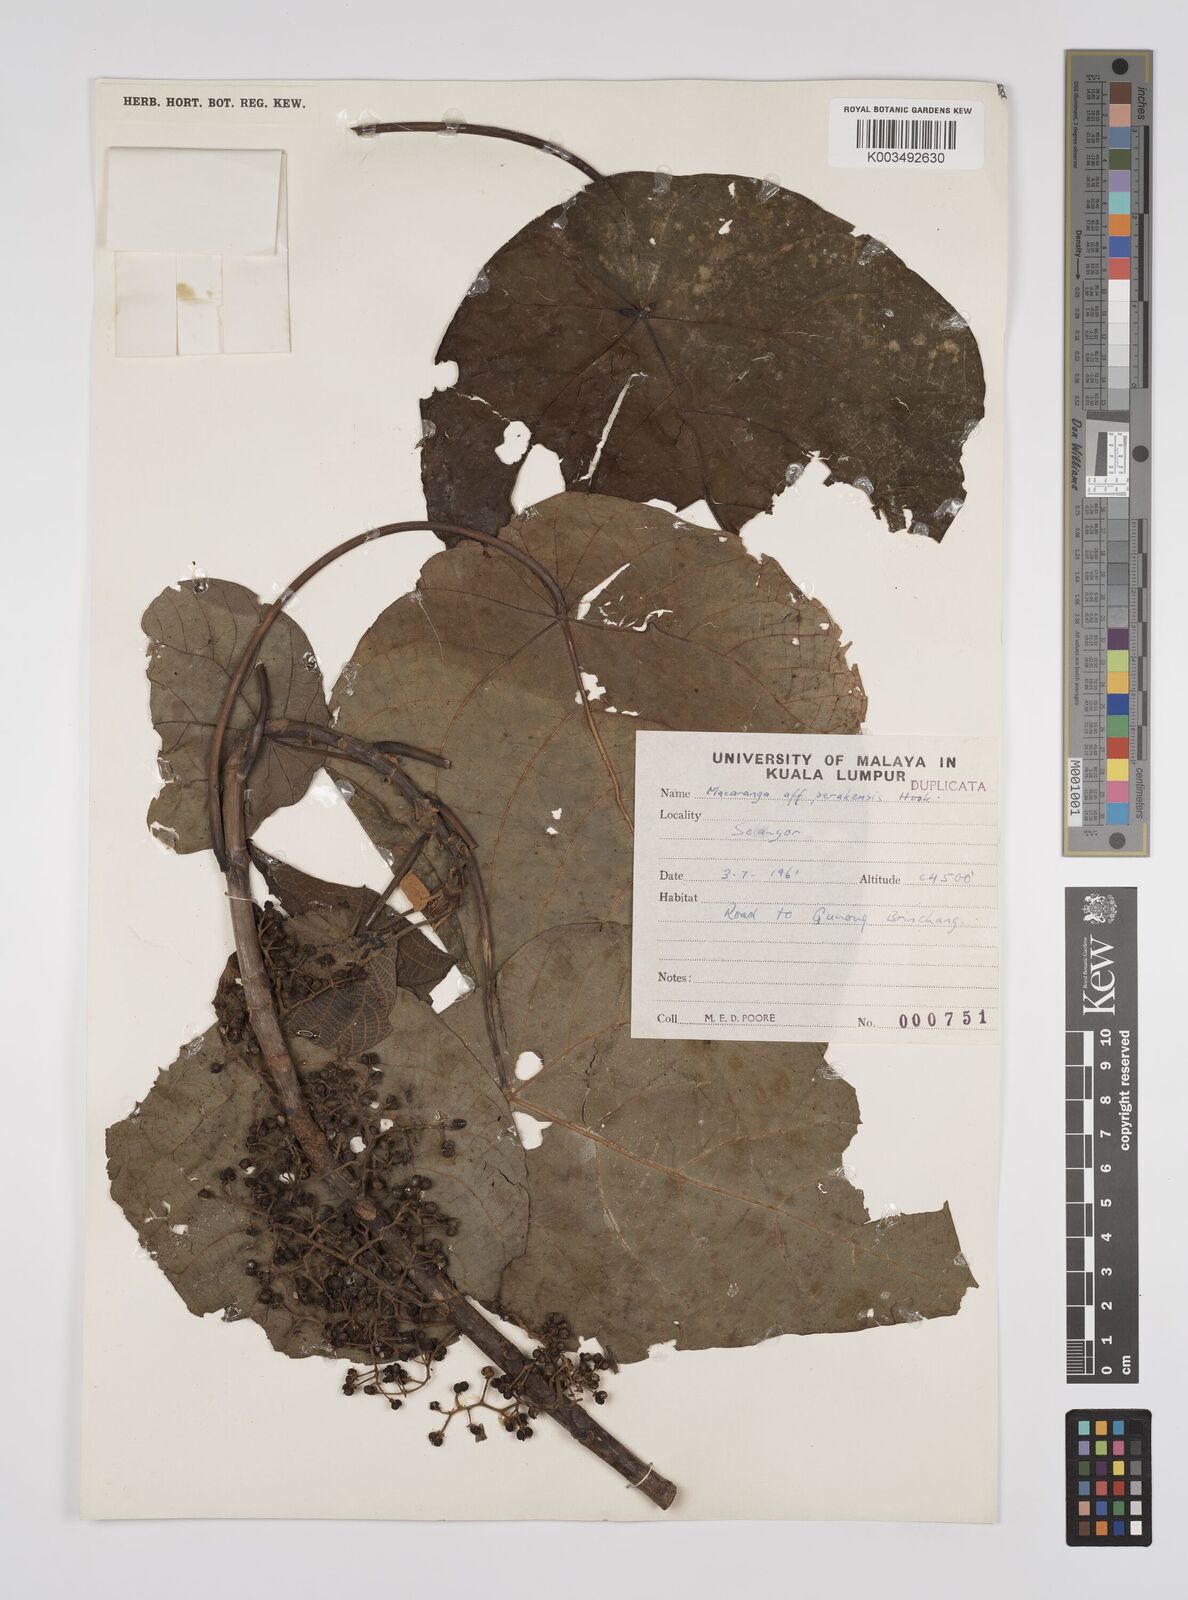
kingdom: Plantae
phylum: Tracheophyta
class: Magnoliopsida
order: Malpighiales
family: Euphorbiaceae
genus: Macaranga
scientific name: Macaranga indica
